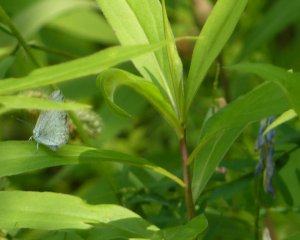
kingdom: Animalia
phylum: Arthropoda
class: Insecta
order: Lepidoptera
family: Lycaenidae
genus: Celastrina
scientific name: Celastrina
